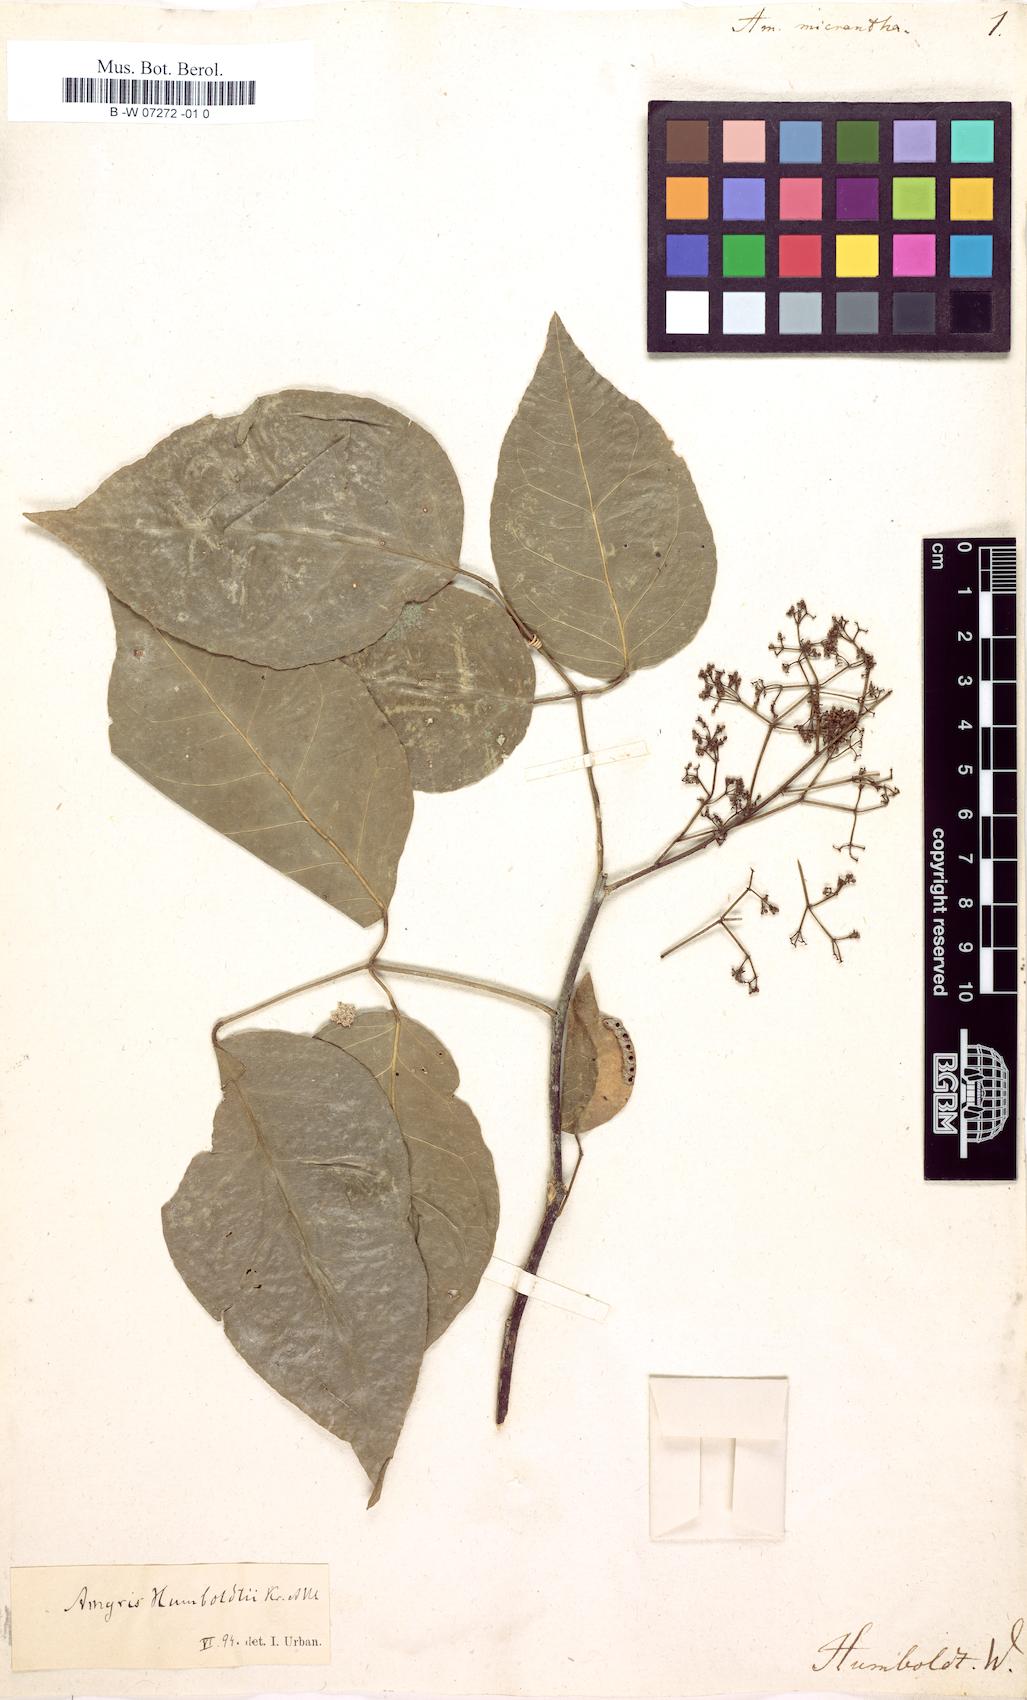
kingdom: Plantae
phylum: Tracheophyta
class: Magnoliopsida
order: Sapindales
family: Rutaceae
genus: Amyris
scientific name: Amyris
